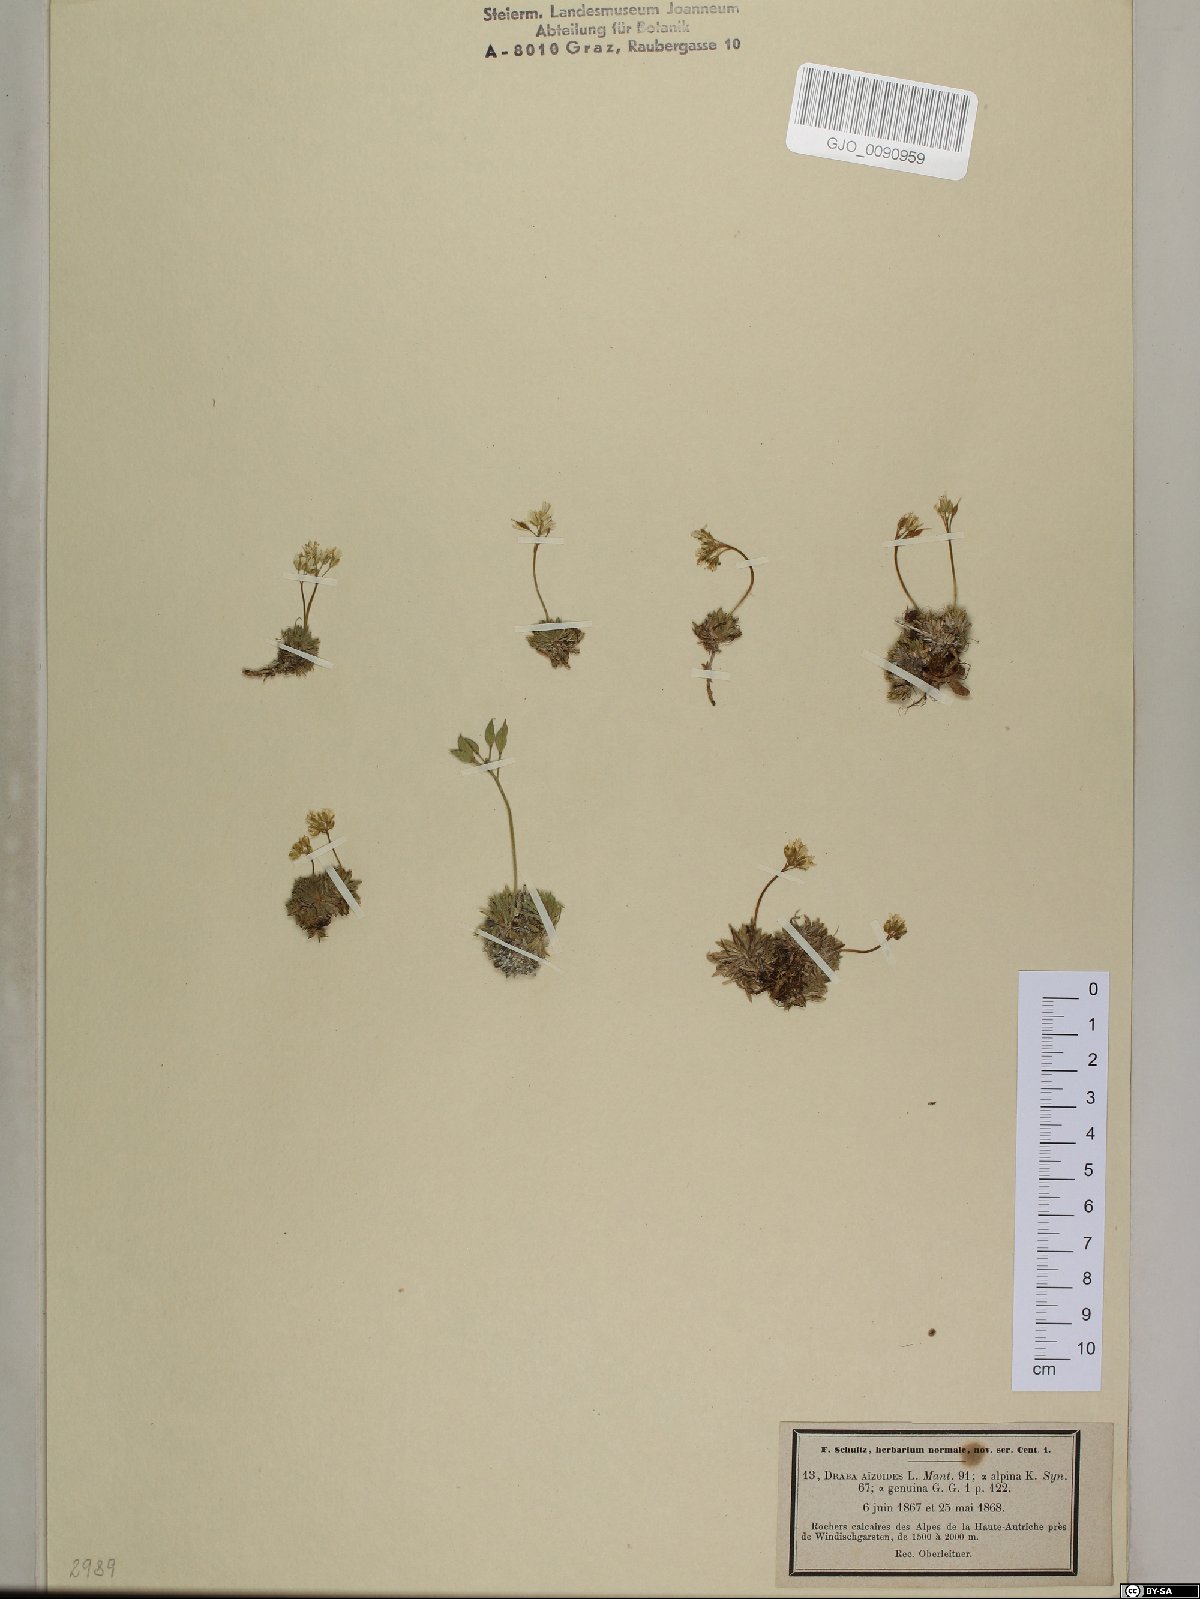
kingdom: Plantae
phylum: Tracheophyta
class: Magnoliopsida
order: Brassicales
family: Brassicaceae
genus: Draba
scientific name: Draba aizoides
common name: Yellow whitlowgrass
